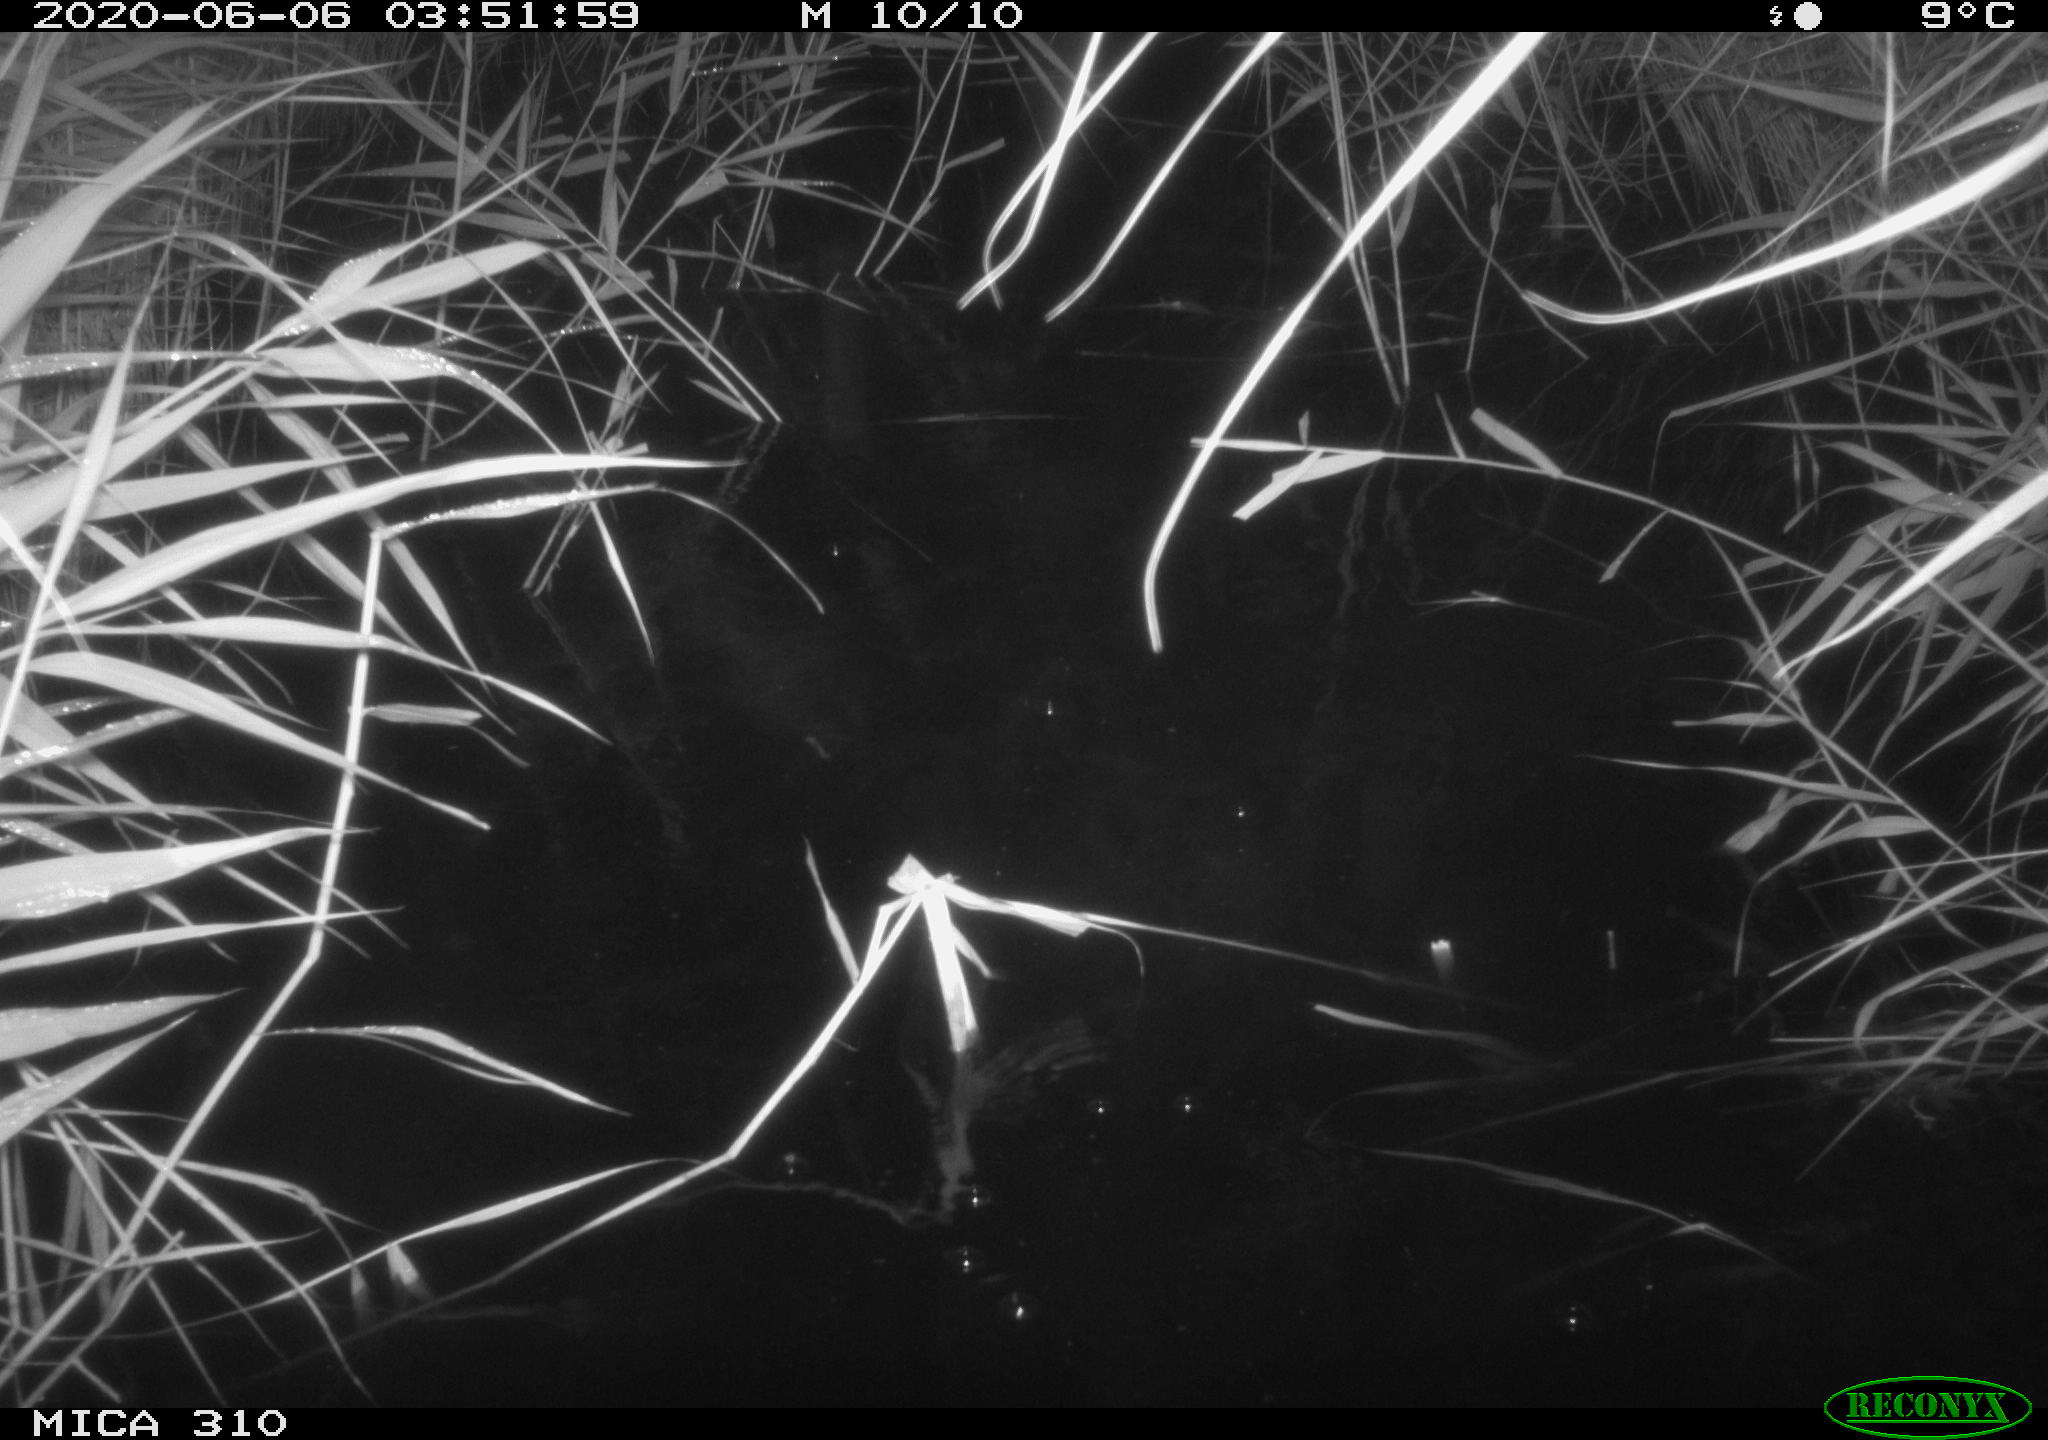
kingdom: Animalia
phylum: Chordata
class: Aves
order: Anseriformes
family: Anatidae
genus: Anas
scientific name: Anas platyrhynchos
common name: Mallard
